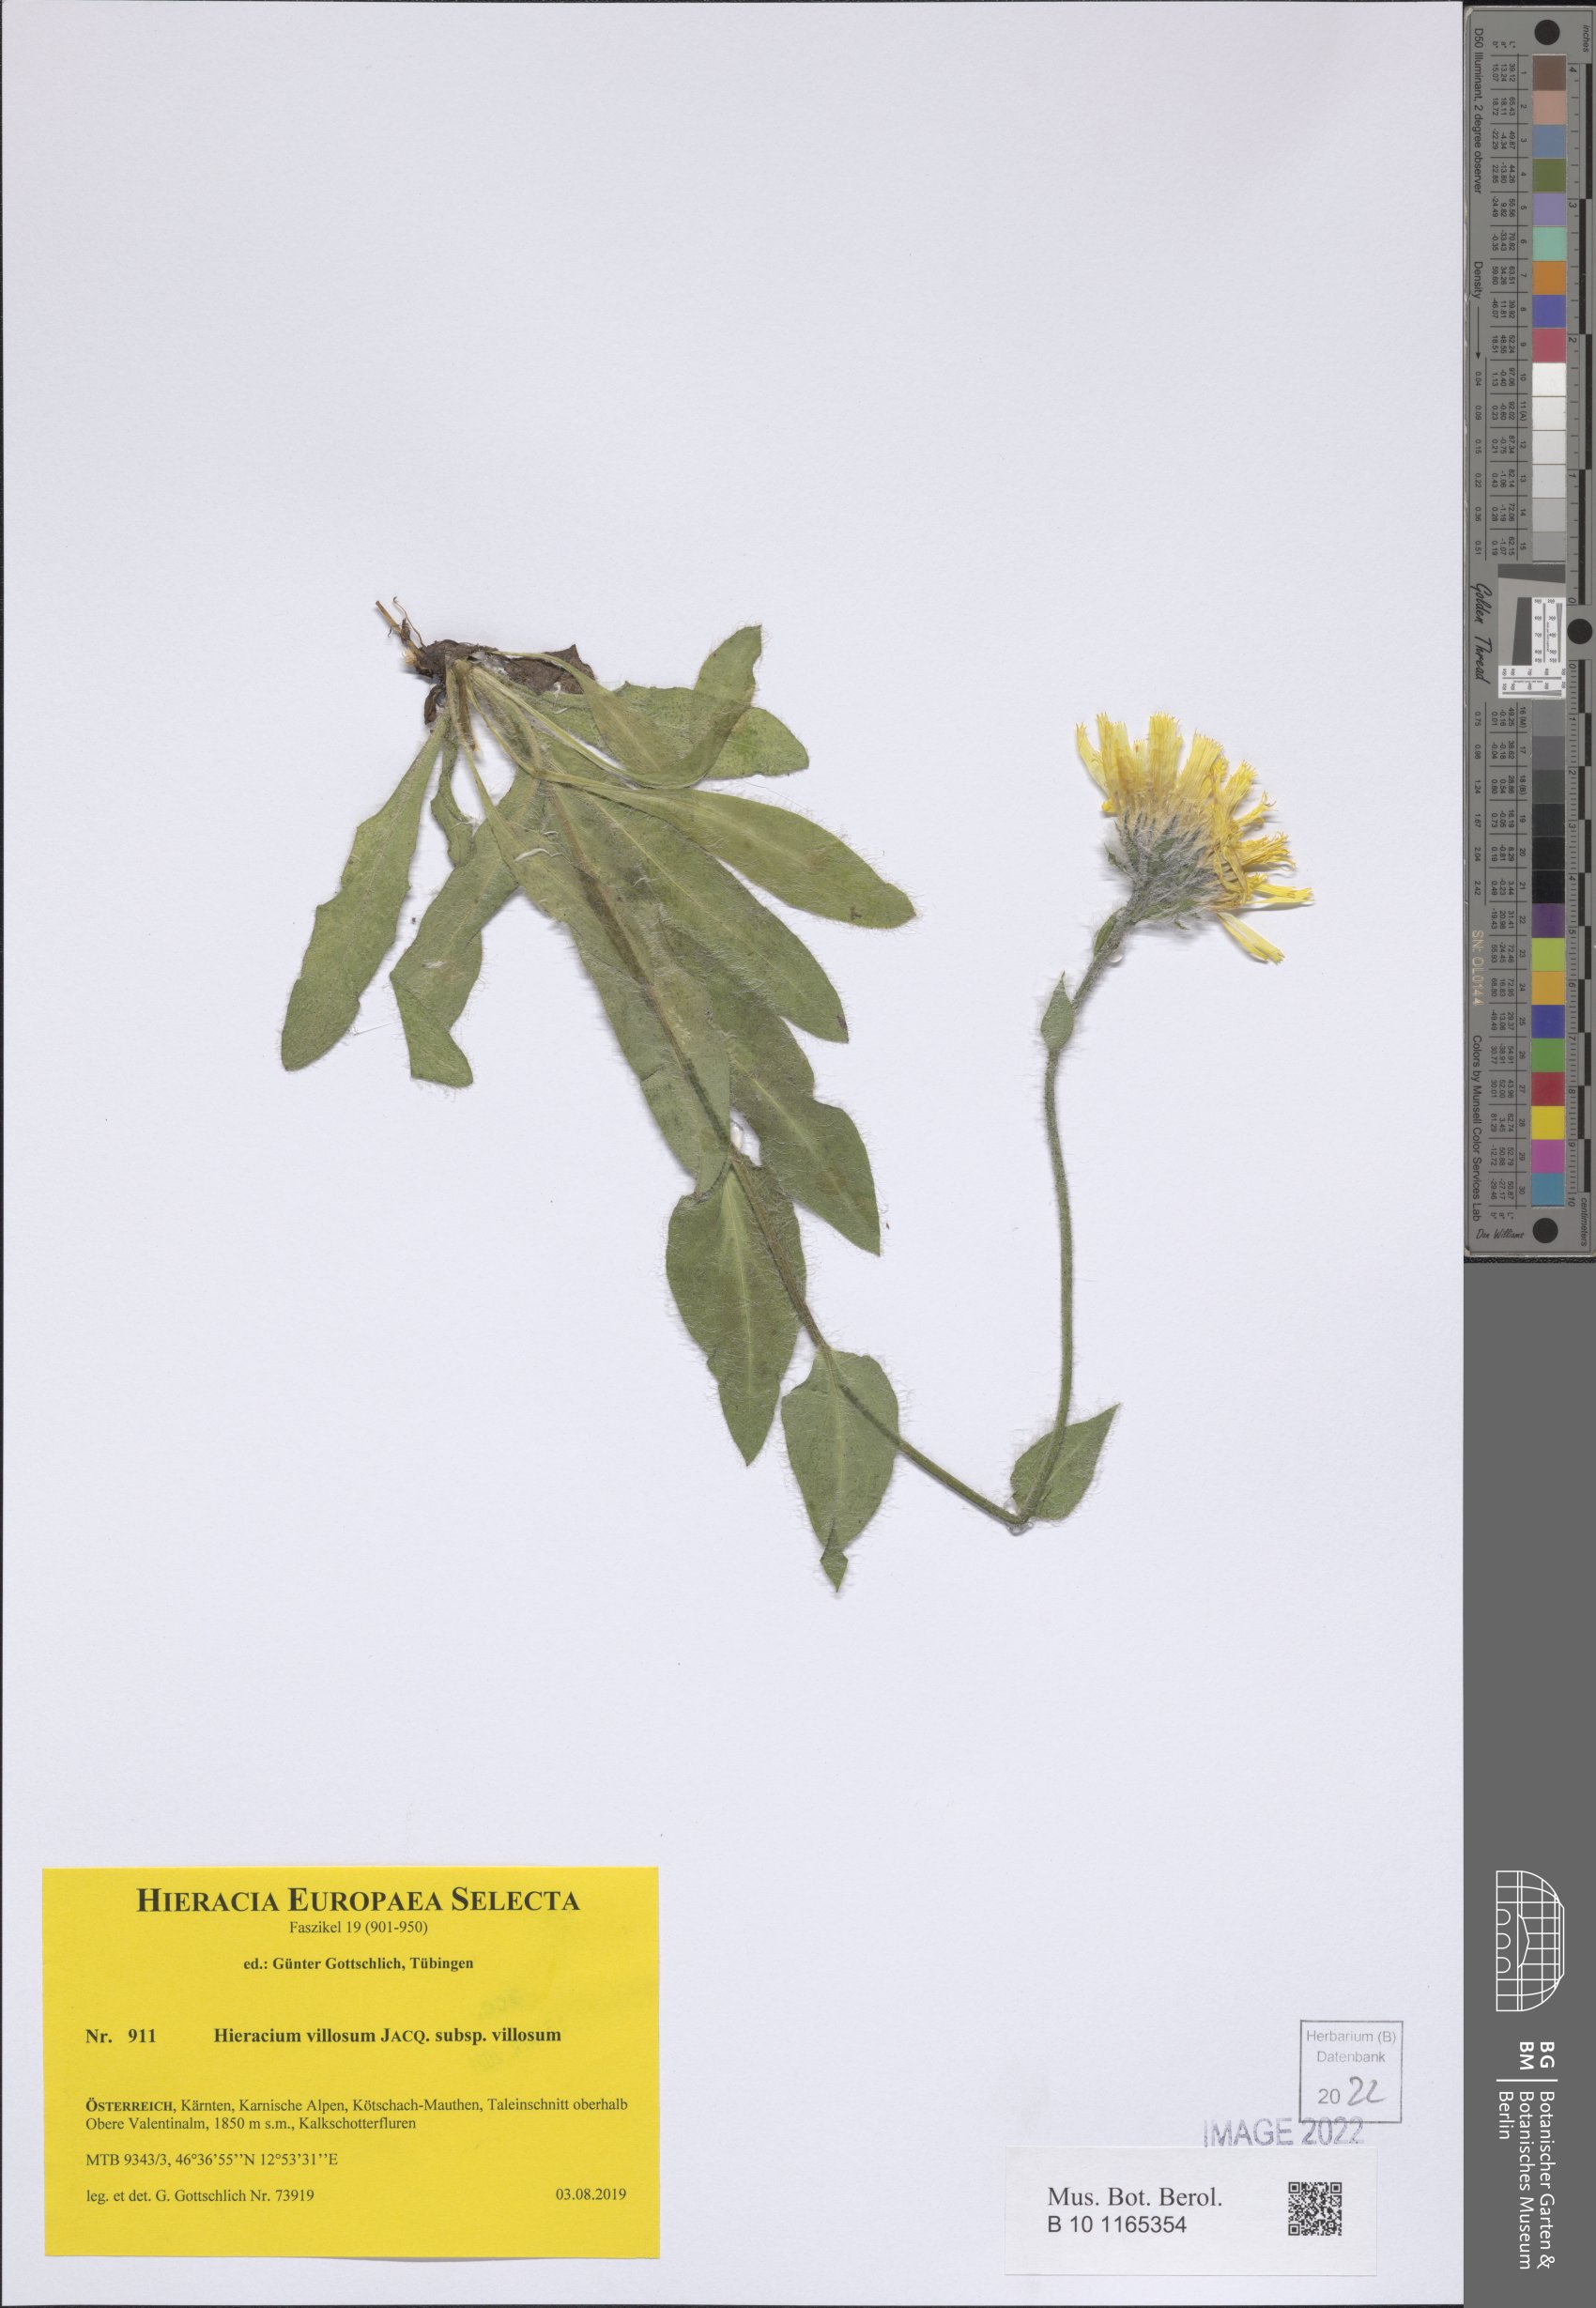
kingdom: Plantae
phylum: Tracheophyta
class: Magnoliopsida
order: Asterales
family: Asteraceae
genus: Hieracium
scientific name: Hieracium villosum
